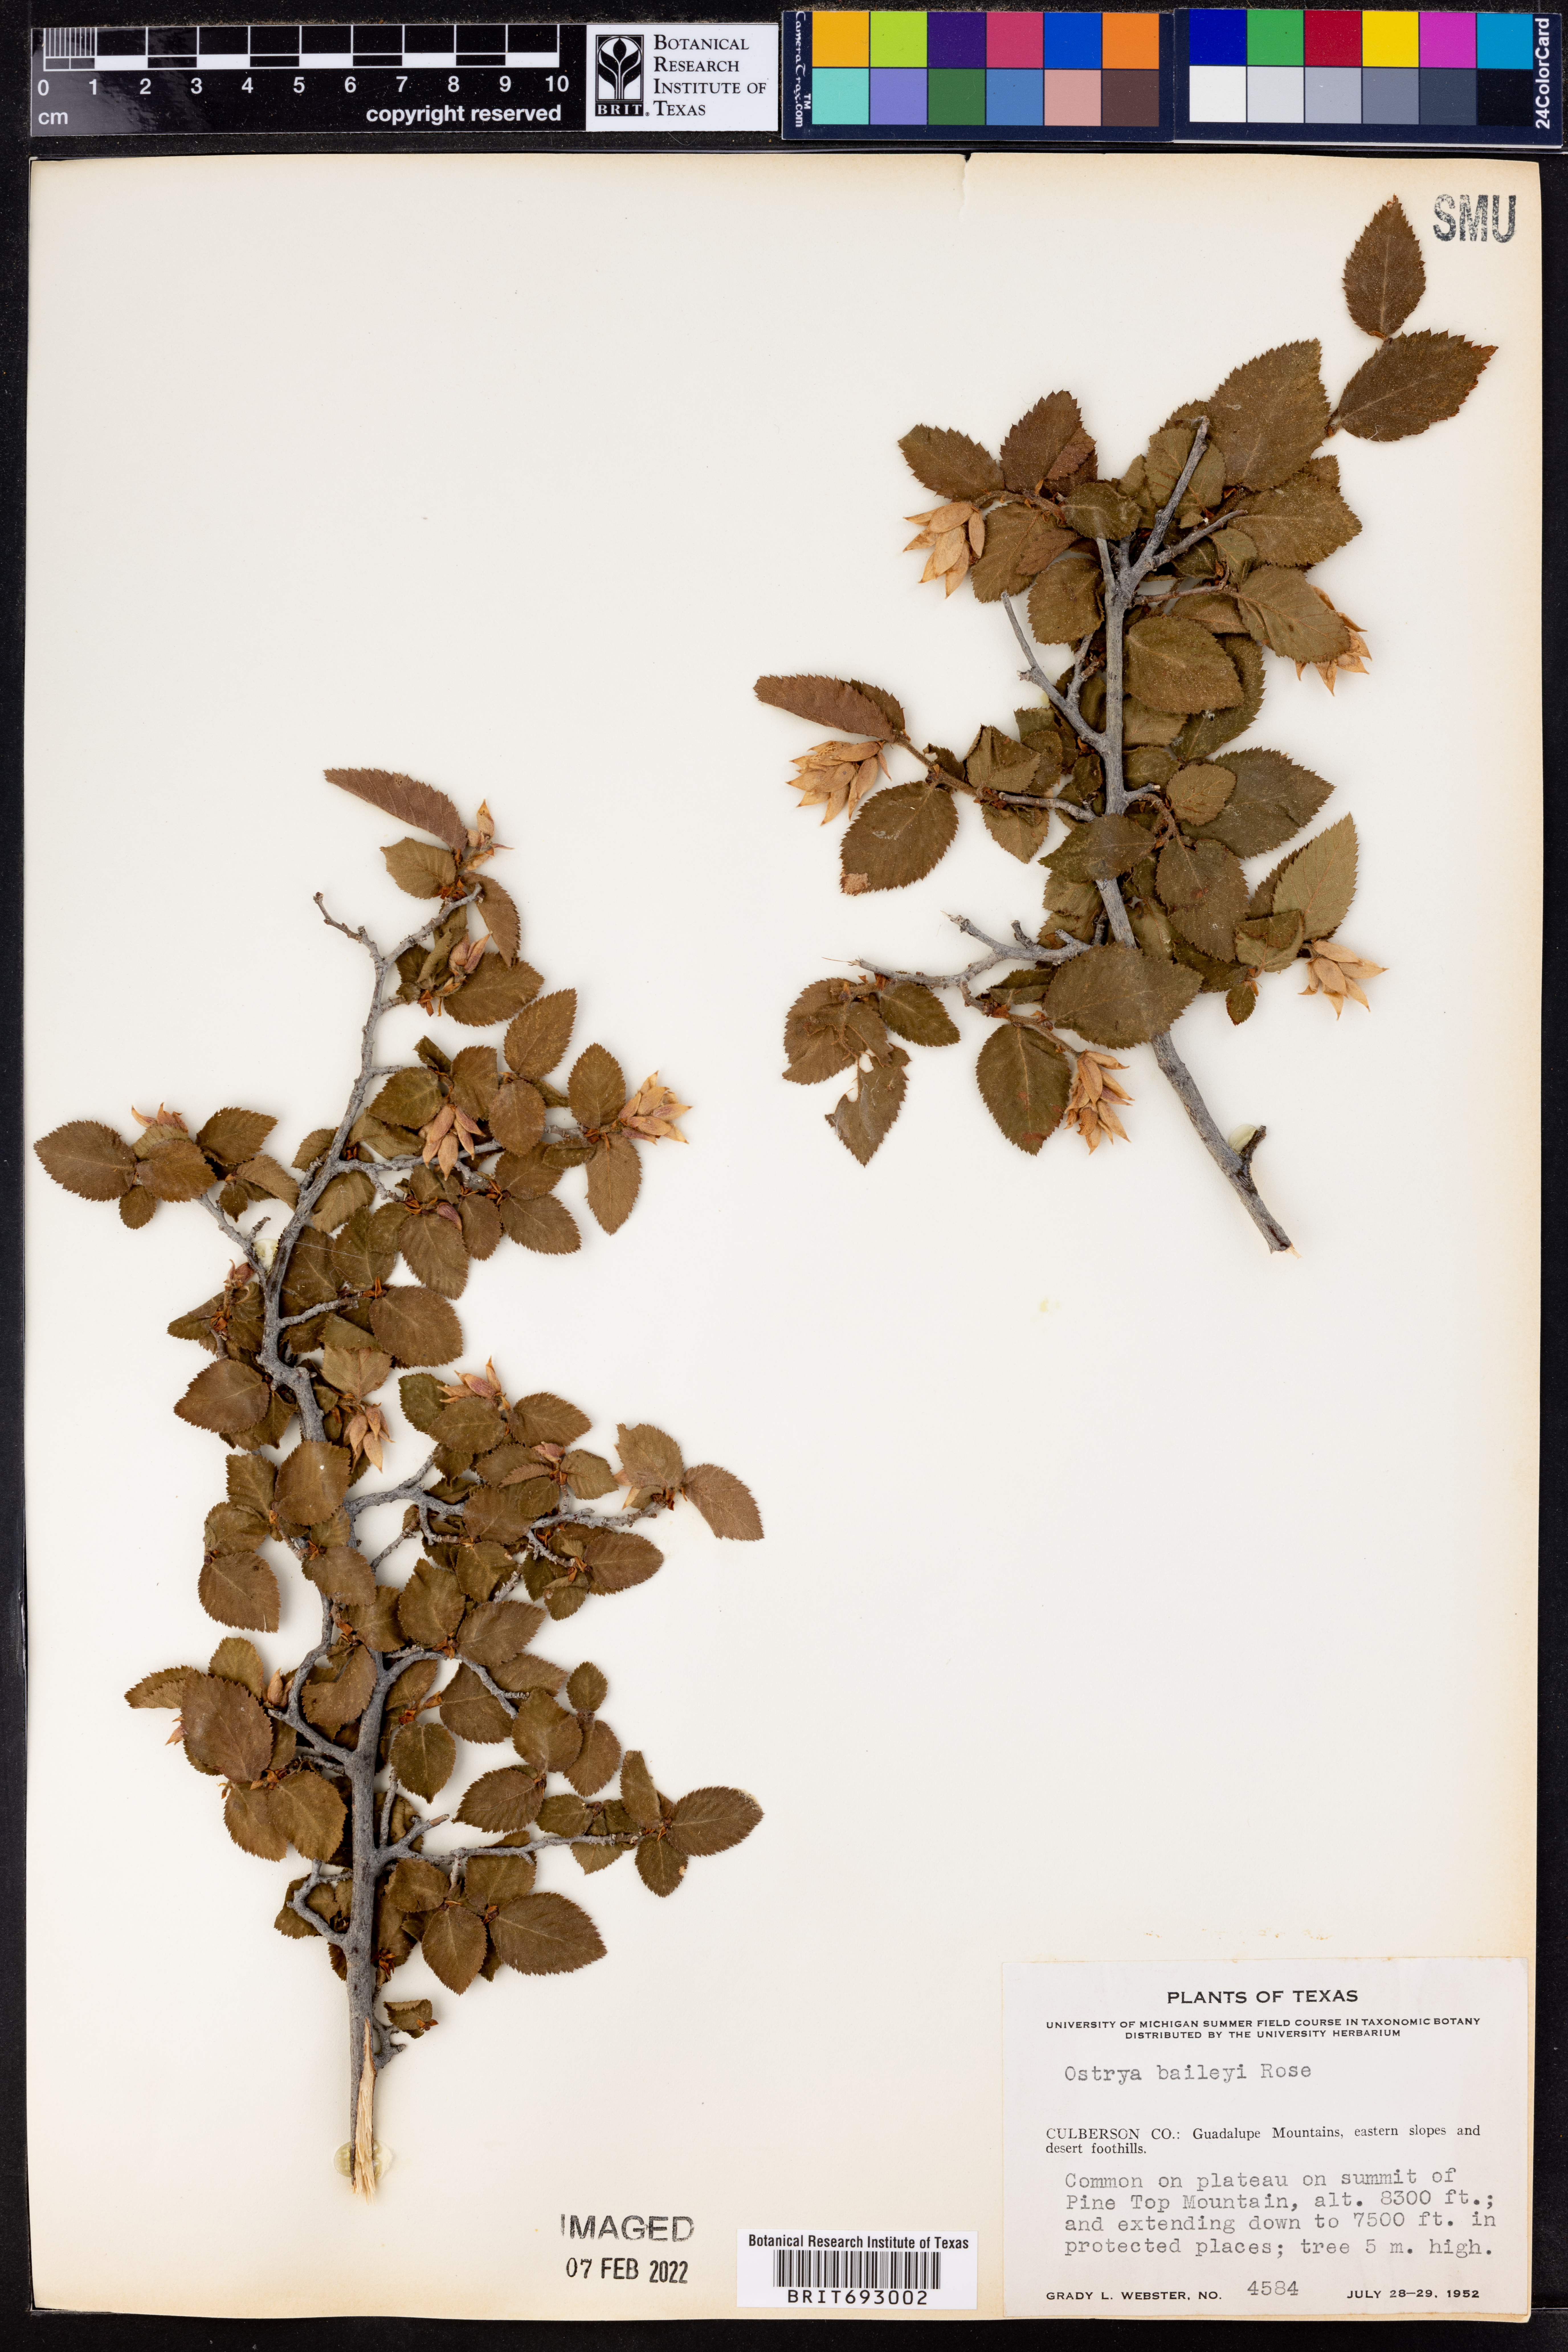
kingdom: Plantae
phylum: Tracheophyta
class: Magnoliopsida
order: Fagales
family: Betulaceae
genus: Ostrya
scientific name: Ostrya virginiana
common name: Ironwood
